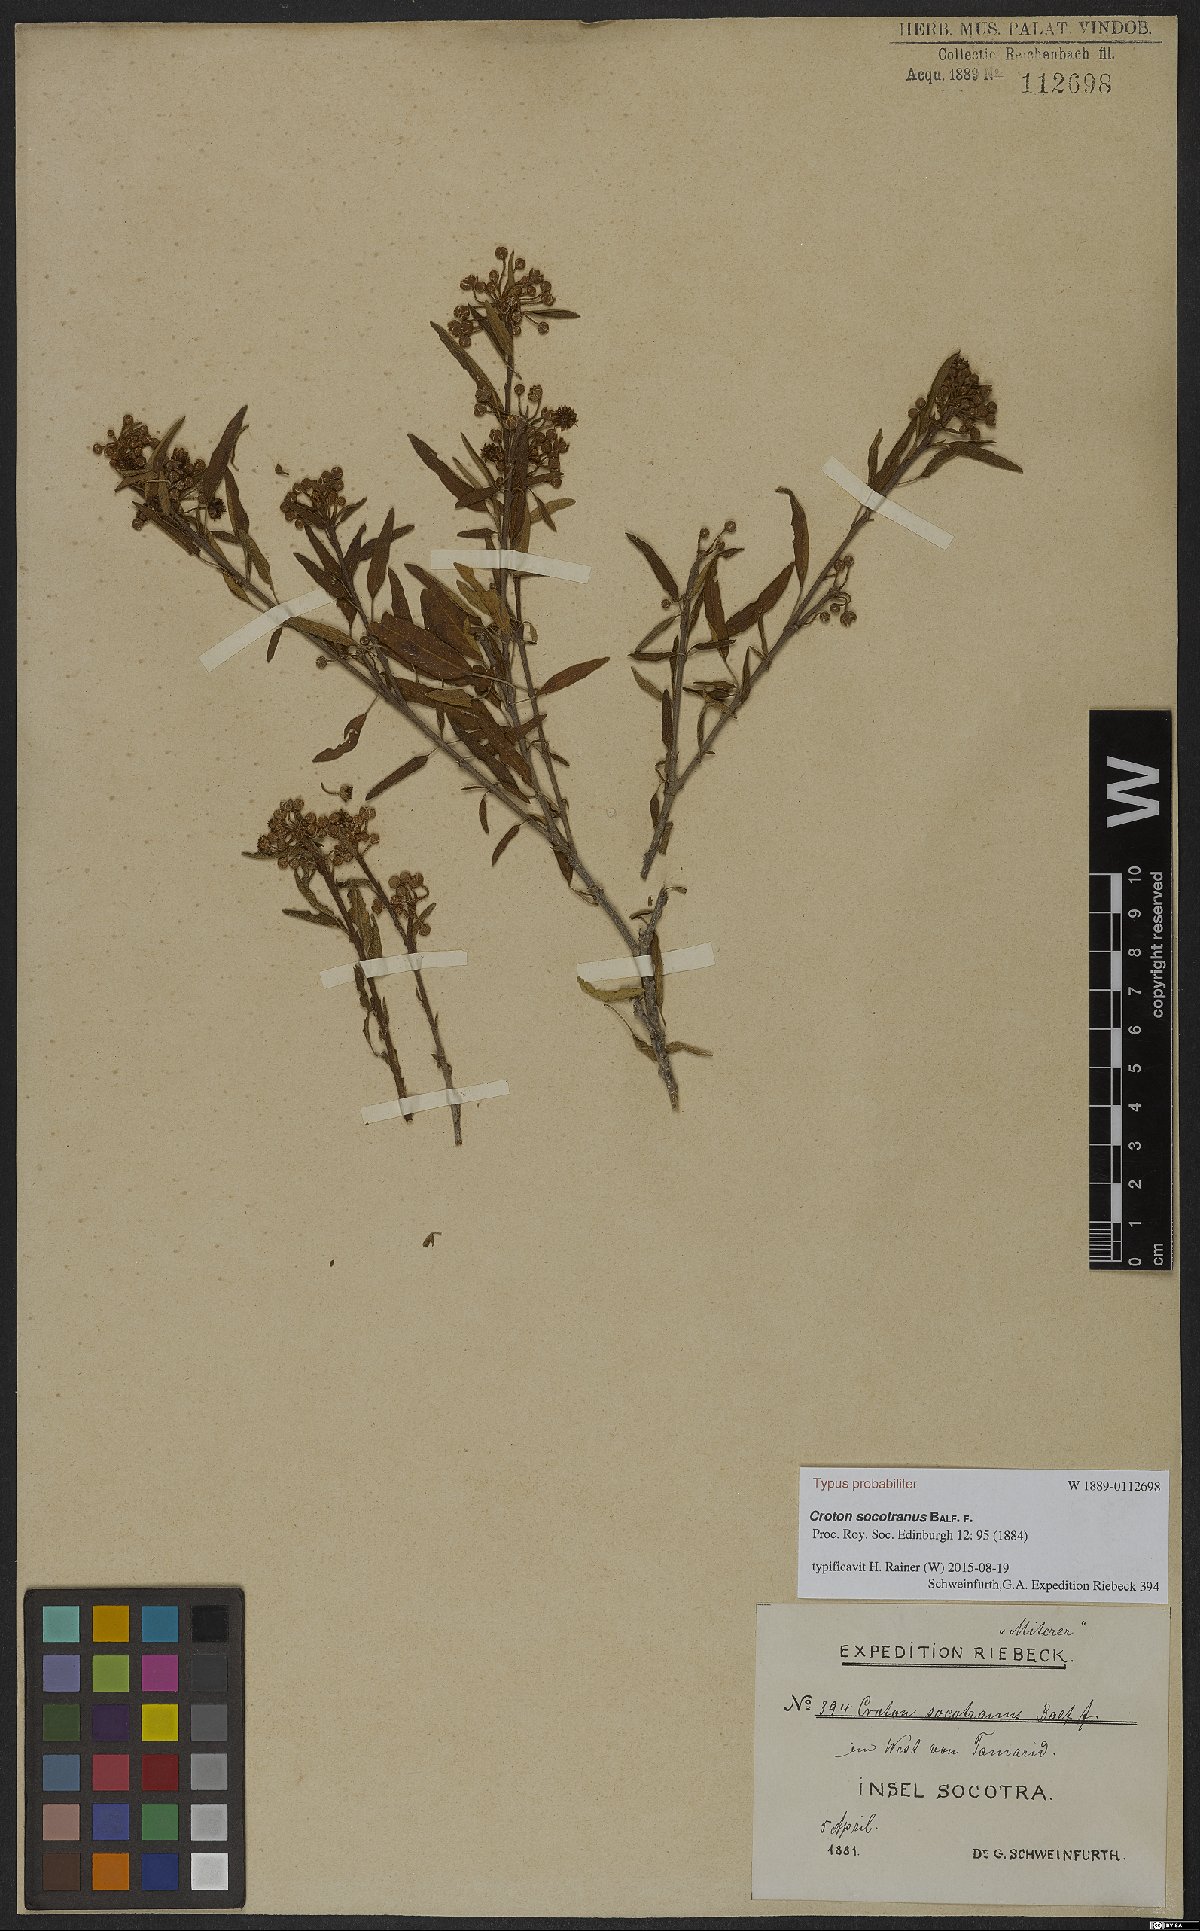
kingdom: Plantae
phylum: Tracheophyta
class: Magnoliopsida
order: Malpighiales
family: Euphorbiaceae
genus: Croton
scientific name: Croton socotranus
